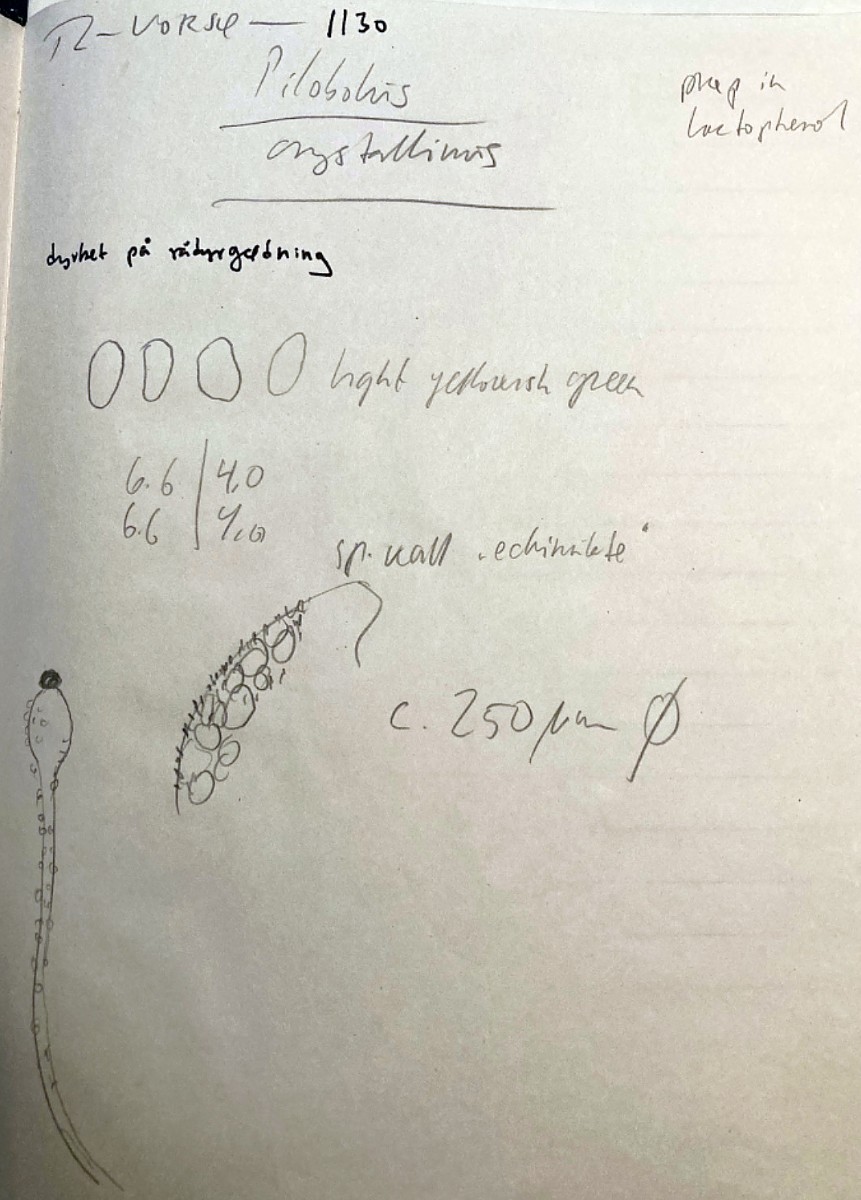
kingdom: Fungi
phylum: Mucoromycota
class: Mucoromycetes
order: Mucorales
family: Pilobolaceae
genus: Pilobolus
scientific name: Pilobolus crystallinus
